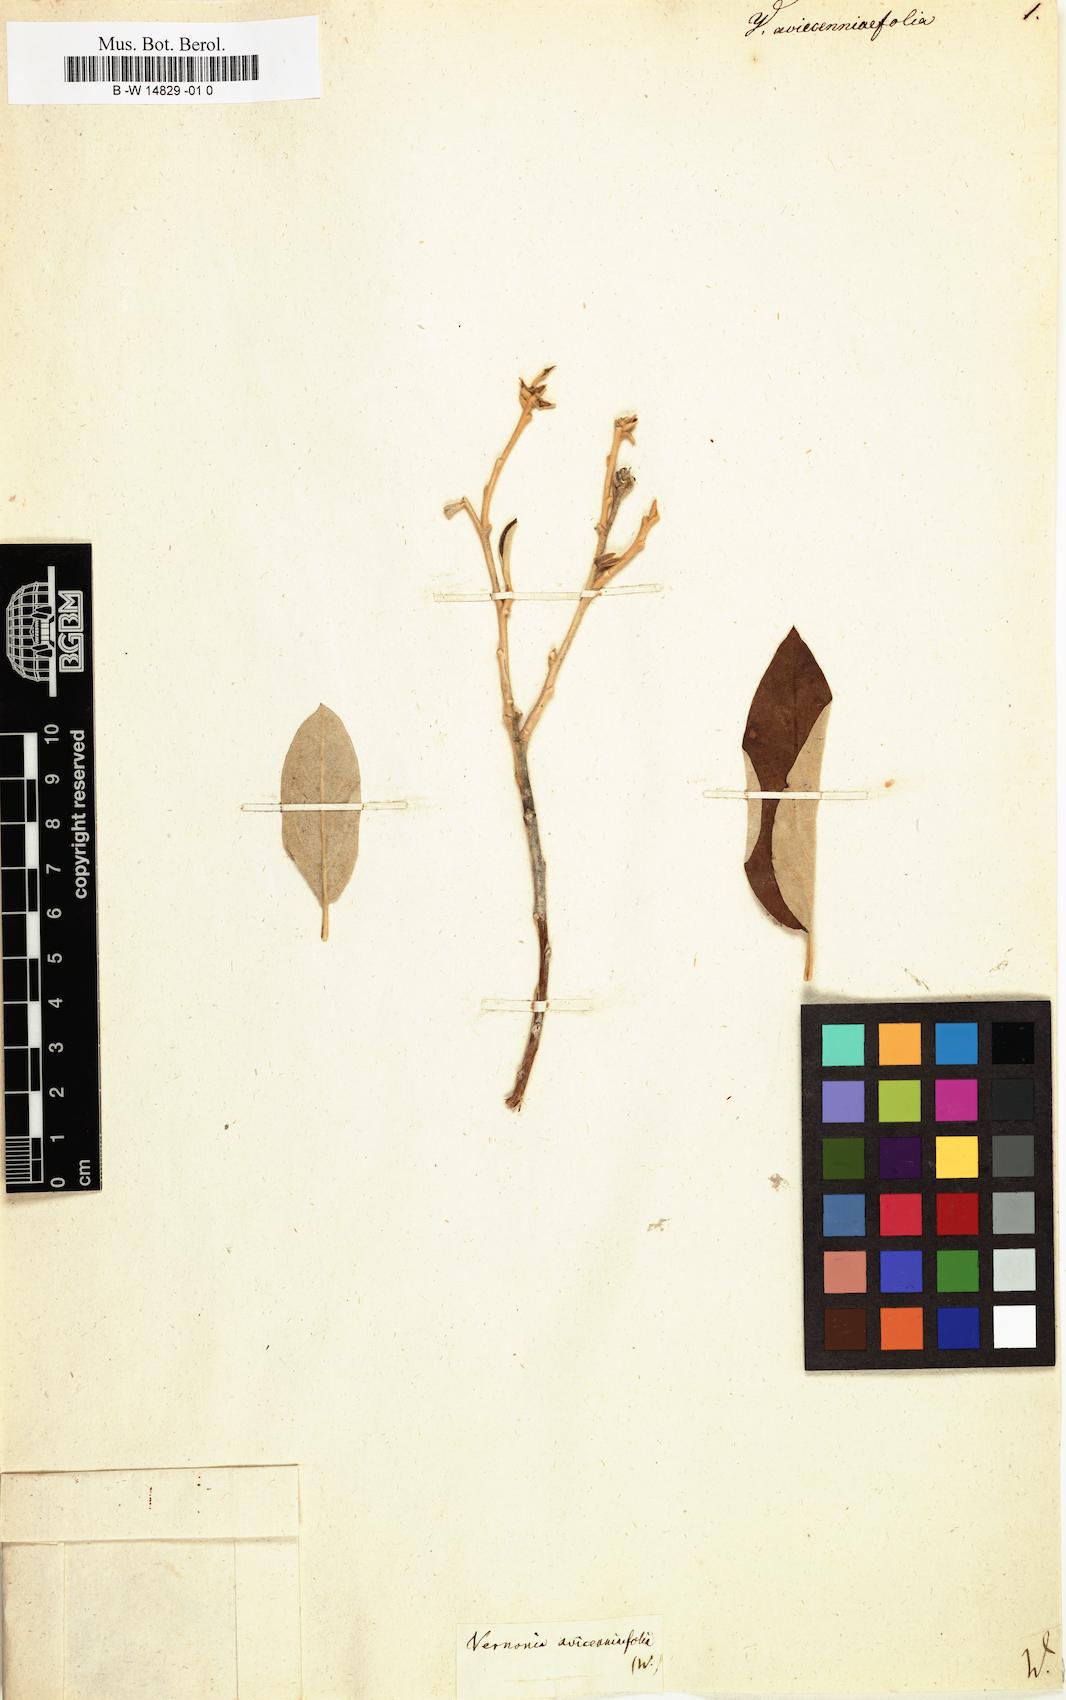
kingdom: Plantae
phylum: Tracheophyta
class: Magnoliopsida
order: Asterales
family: Asteraceae
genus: Vernonia
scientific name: Vernonia
